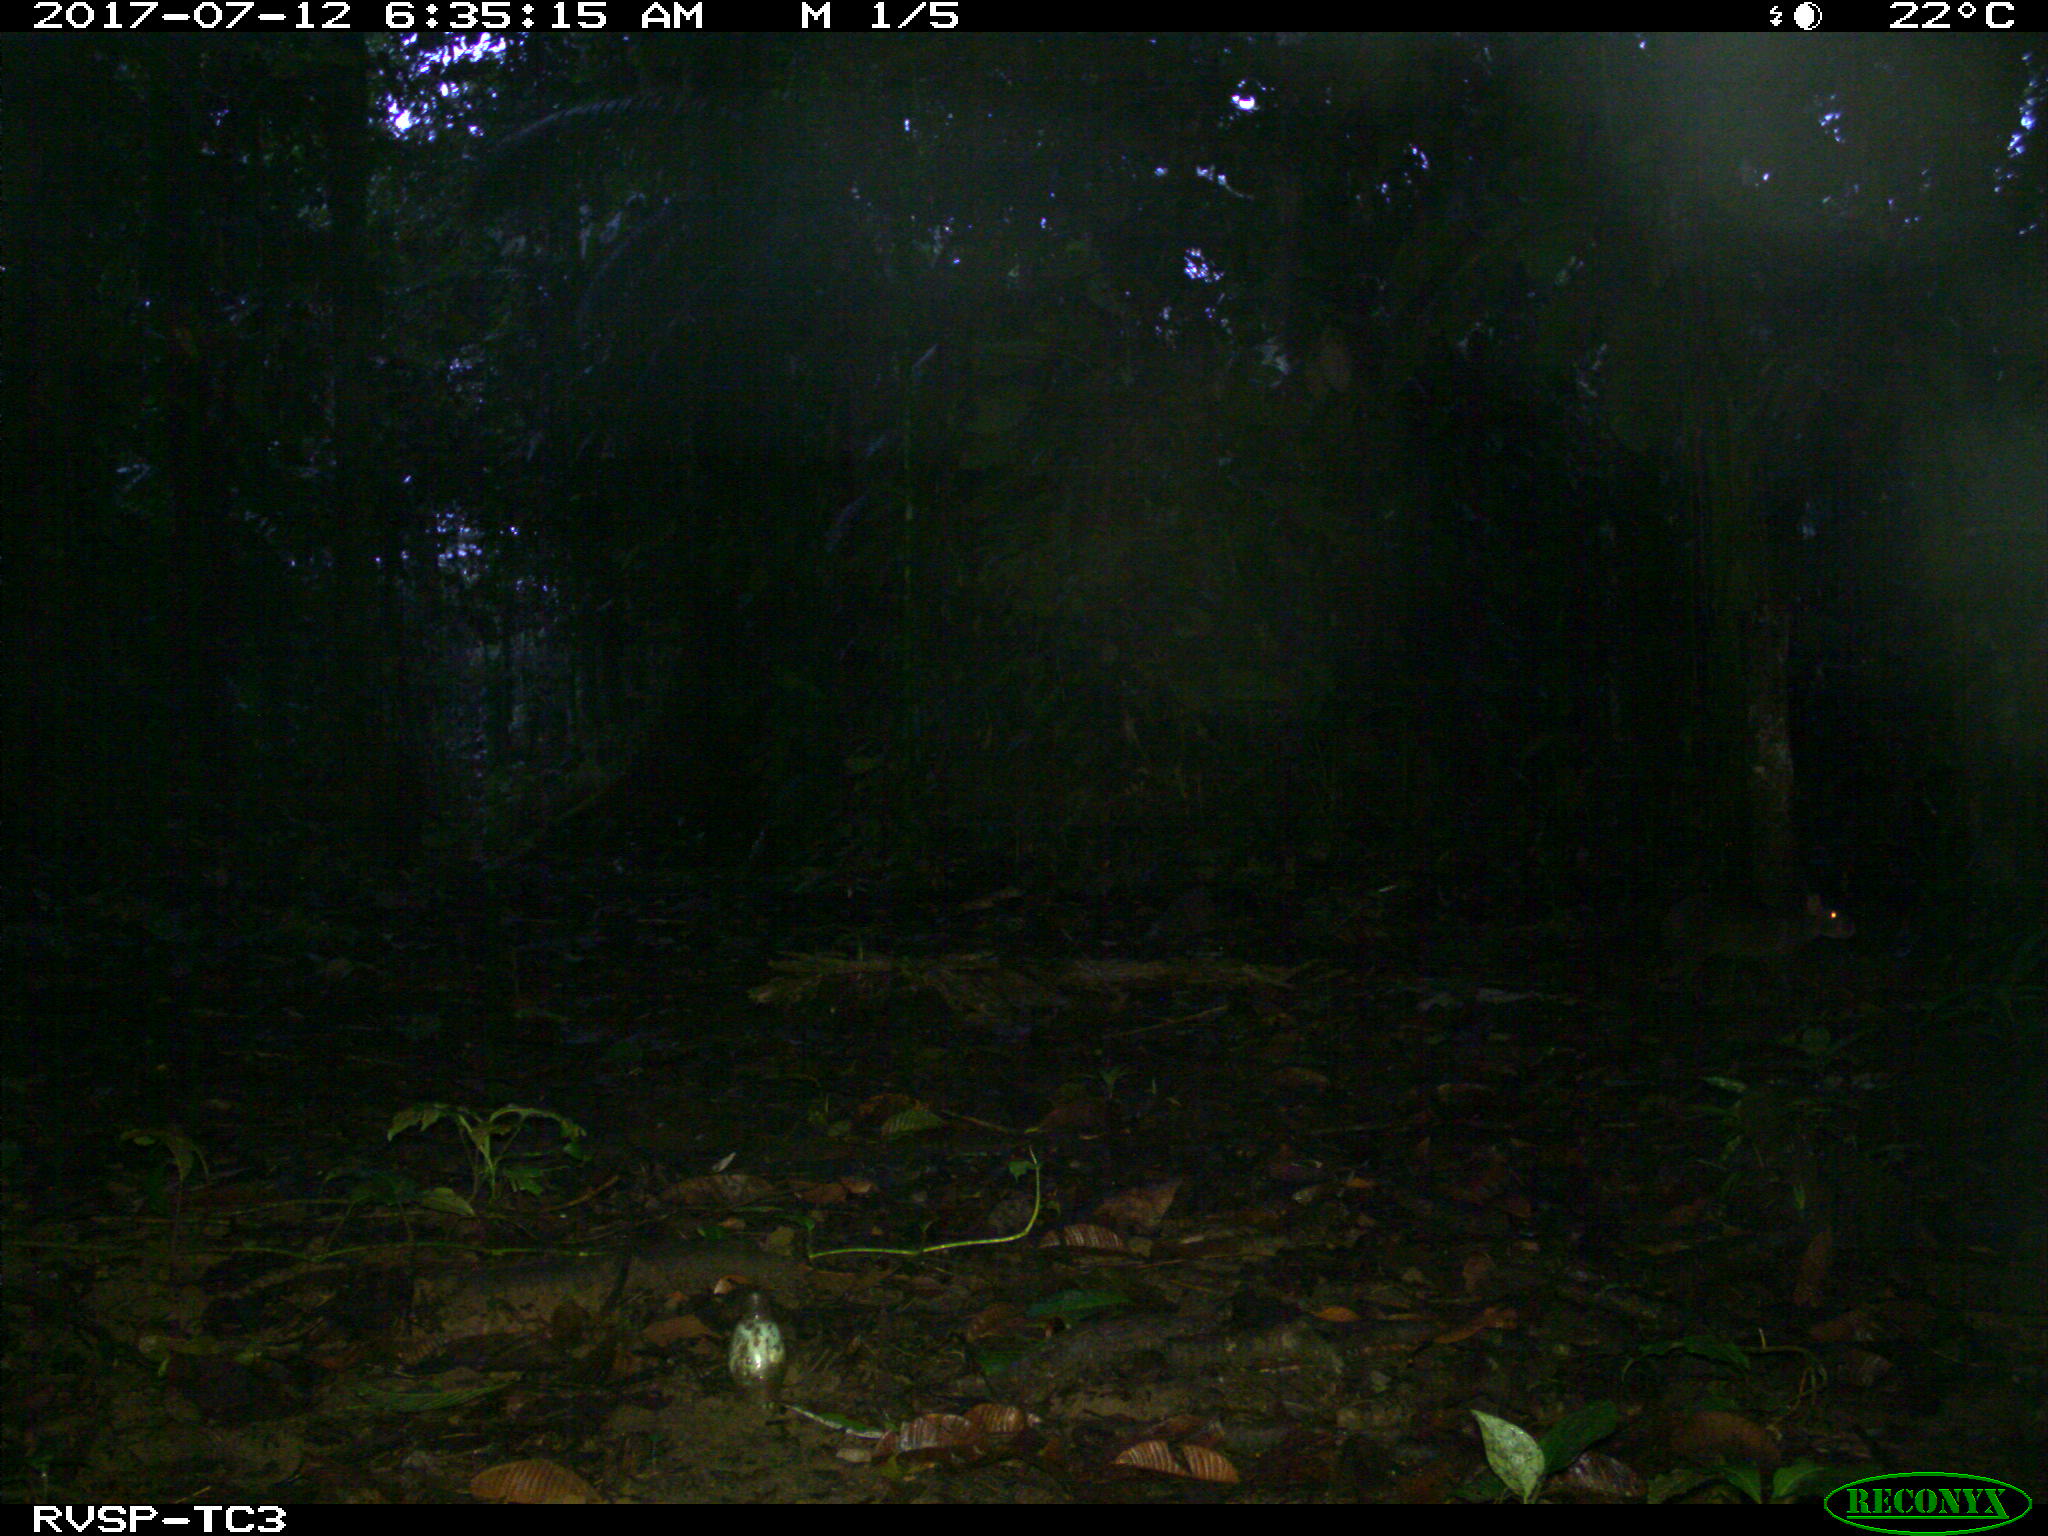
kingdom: Animalia
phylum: Chordata
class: Mammalia
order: Rodentia
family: Dasyproctidae
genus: Dasyprocta
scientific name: Dasyprocta punctata
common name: Central american agouti
